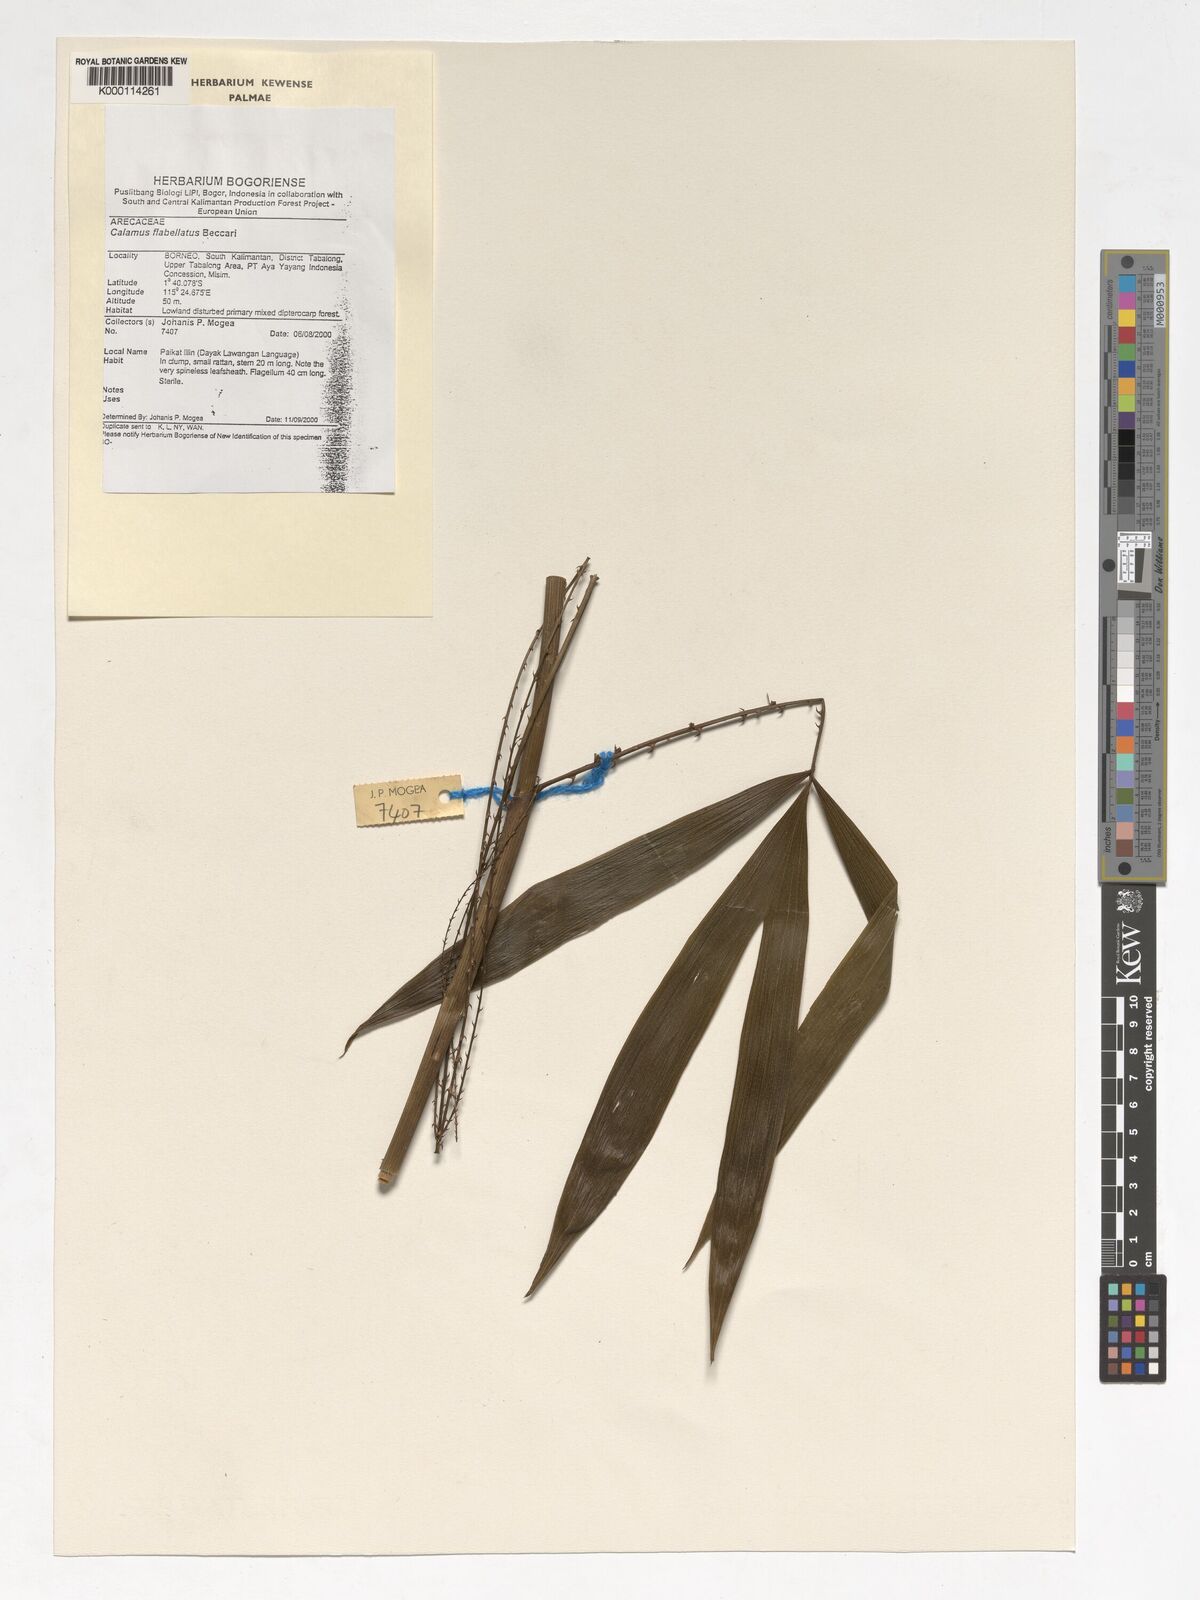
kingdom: Plantae
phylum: Tracheophyta
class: Liliopsida
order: Arecales
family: Arecaceae
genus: Calamus
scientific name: Calamus flabellatus
